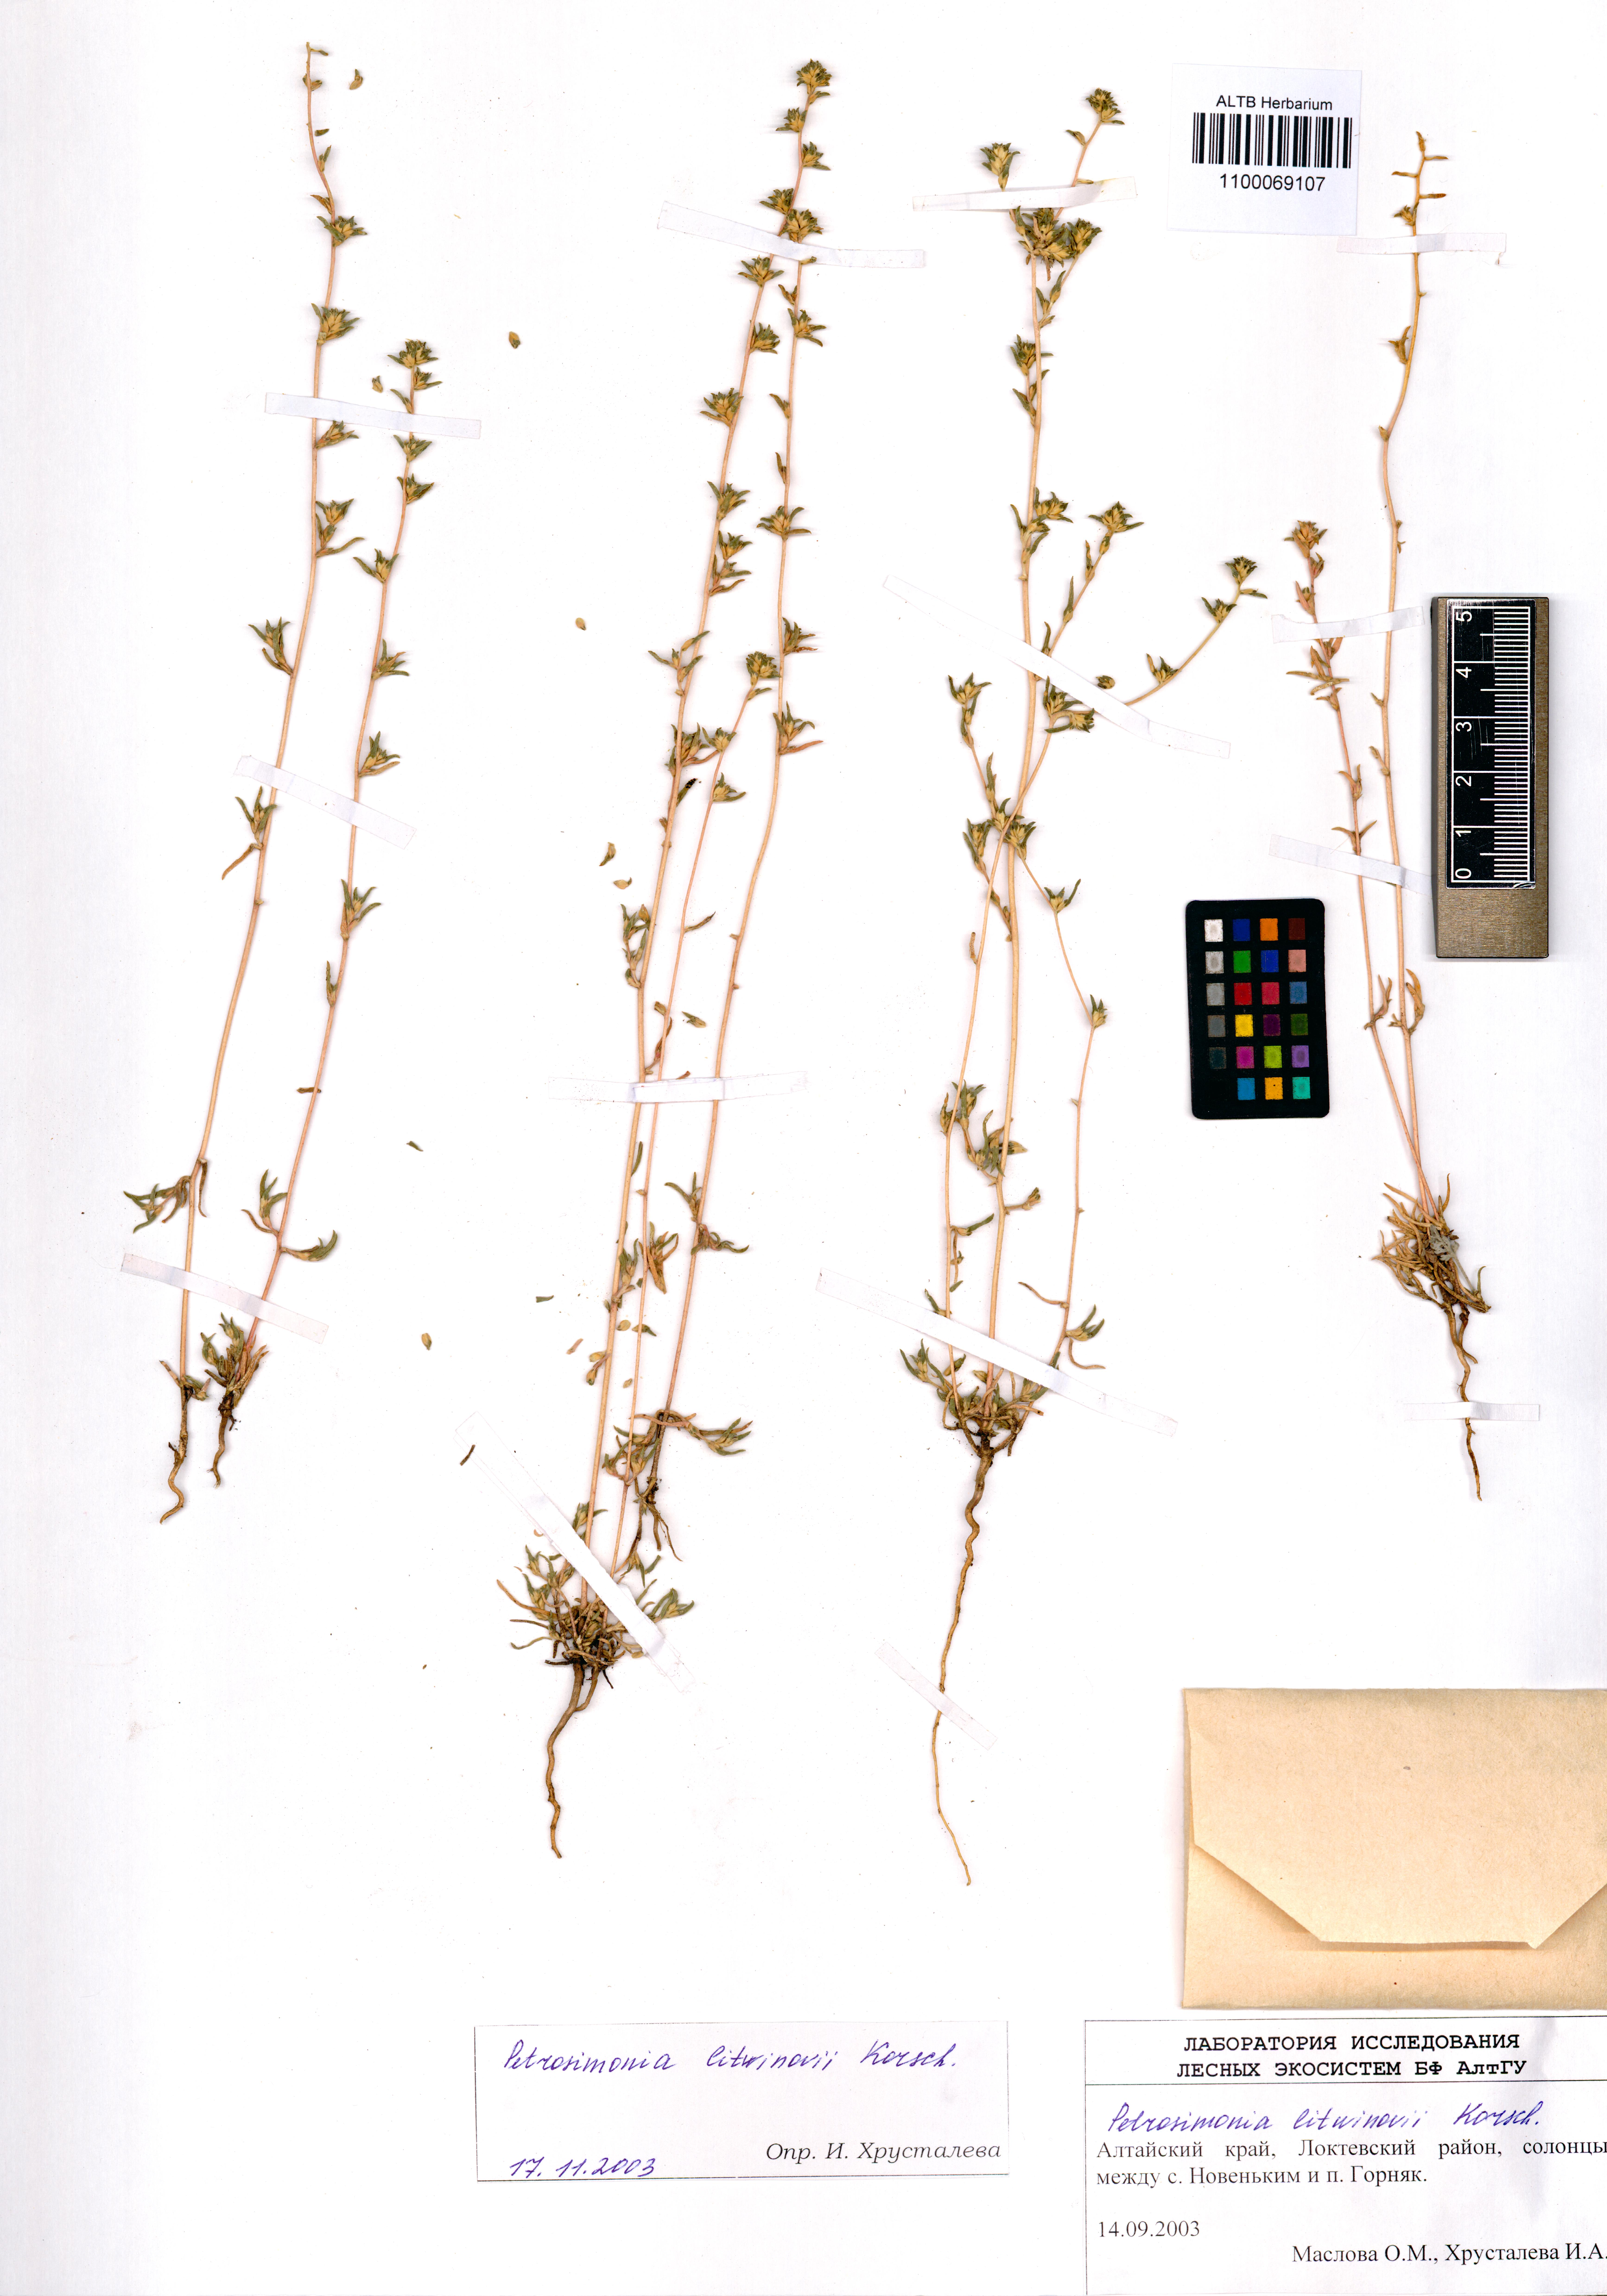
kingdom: Plantae
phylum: Tracheophyta
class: Magnoliopsida
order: Caryophyllales
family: Amaranthaceae
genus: Petrosimonia
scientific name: Petrosimonia litvinowi
